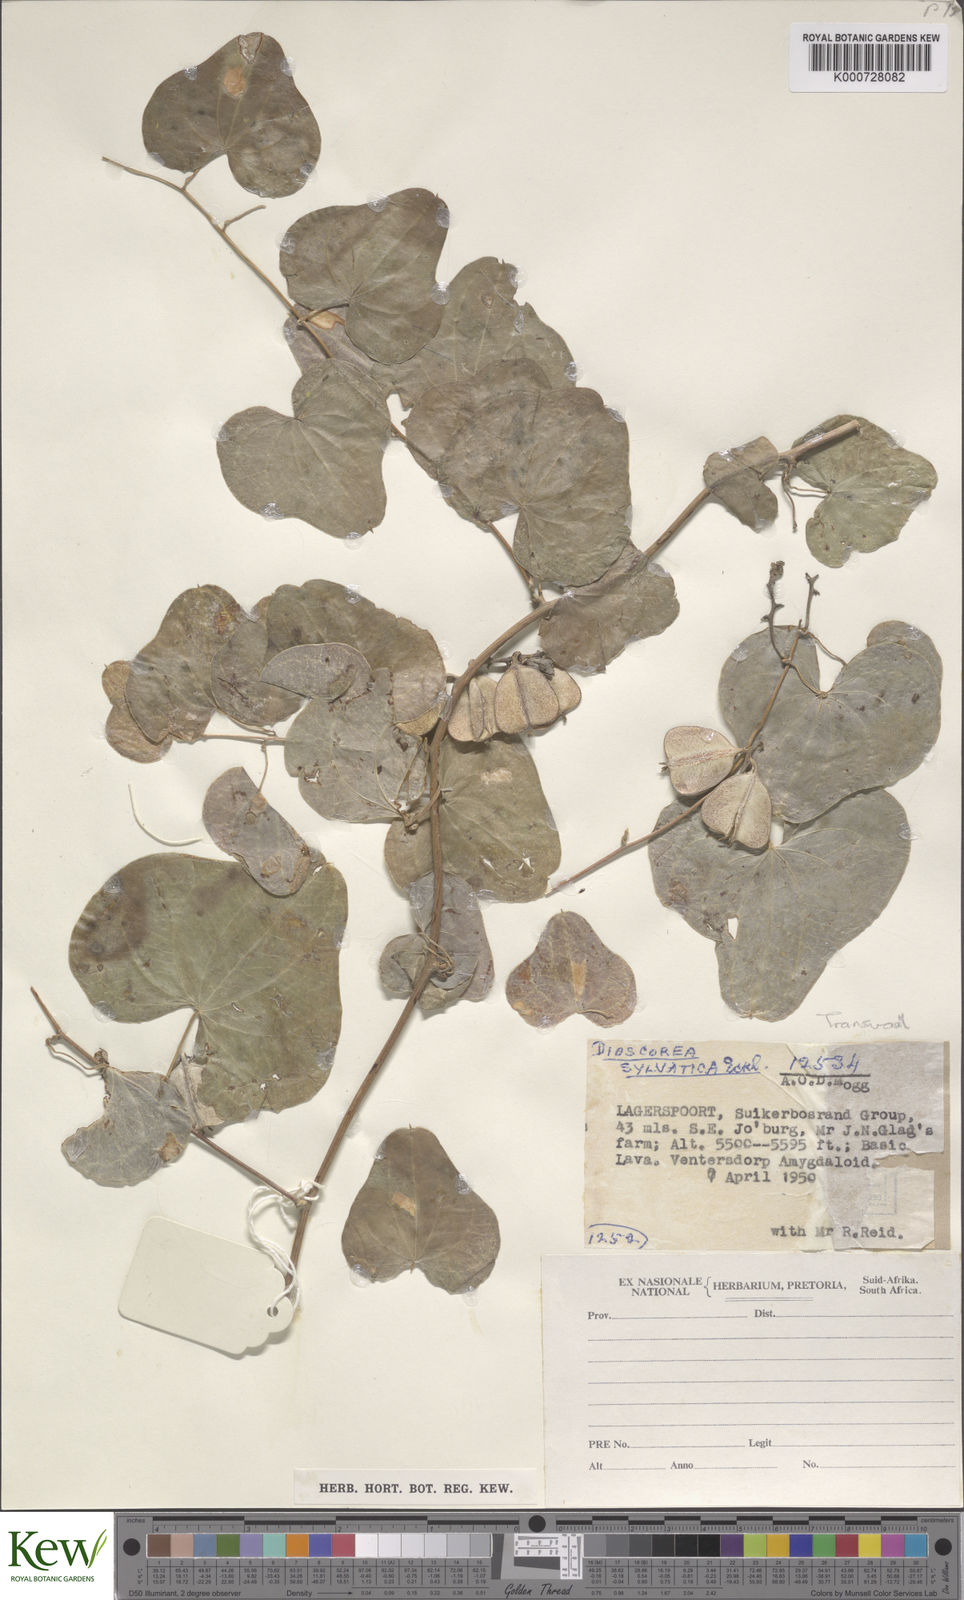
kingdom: Plantae
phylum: Tracheophyta
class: Liliopsida
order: Dioscoreales
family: Dioscoreaceae
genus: Dioscorea
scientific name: Dioscorea sylvatica
